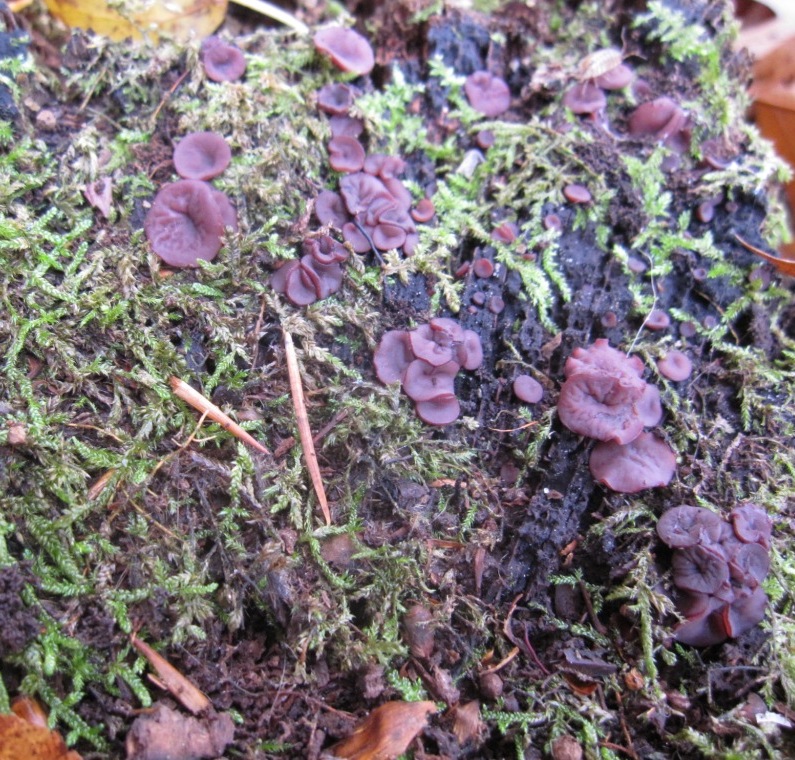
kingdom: Fungi
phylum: Ascomycota
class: Leotiomycetes
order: Helotiales
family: Gelatinodiscaceae
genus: Ascocoryne
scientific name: Ascocoryne cylichnium
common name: stor sejskive
